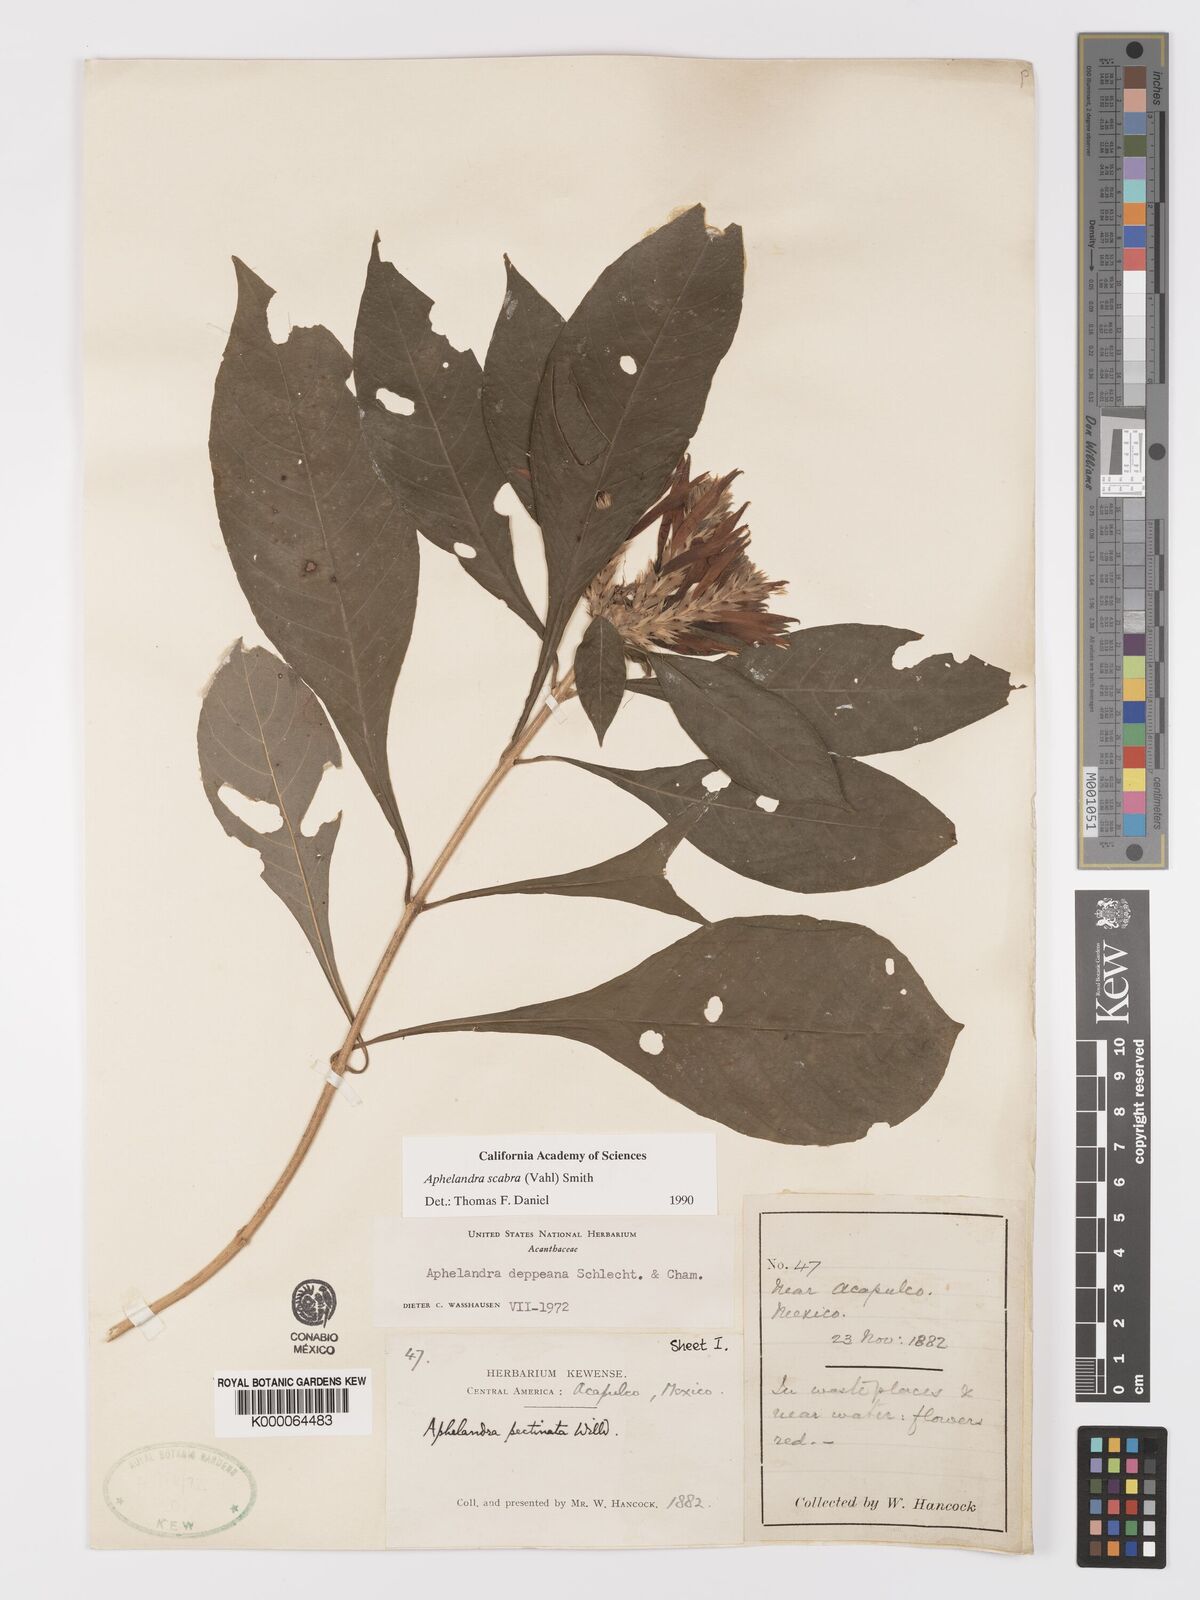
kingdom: Plantae
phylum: Tracheophyta
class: Magnoliopsida
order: Lamiales
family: Acanthaceae
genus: Aphelandra
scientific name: Aphelandra scabra
